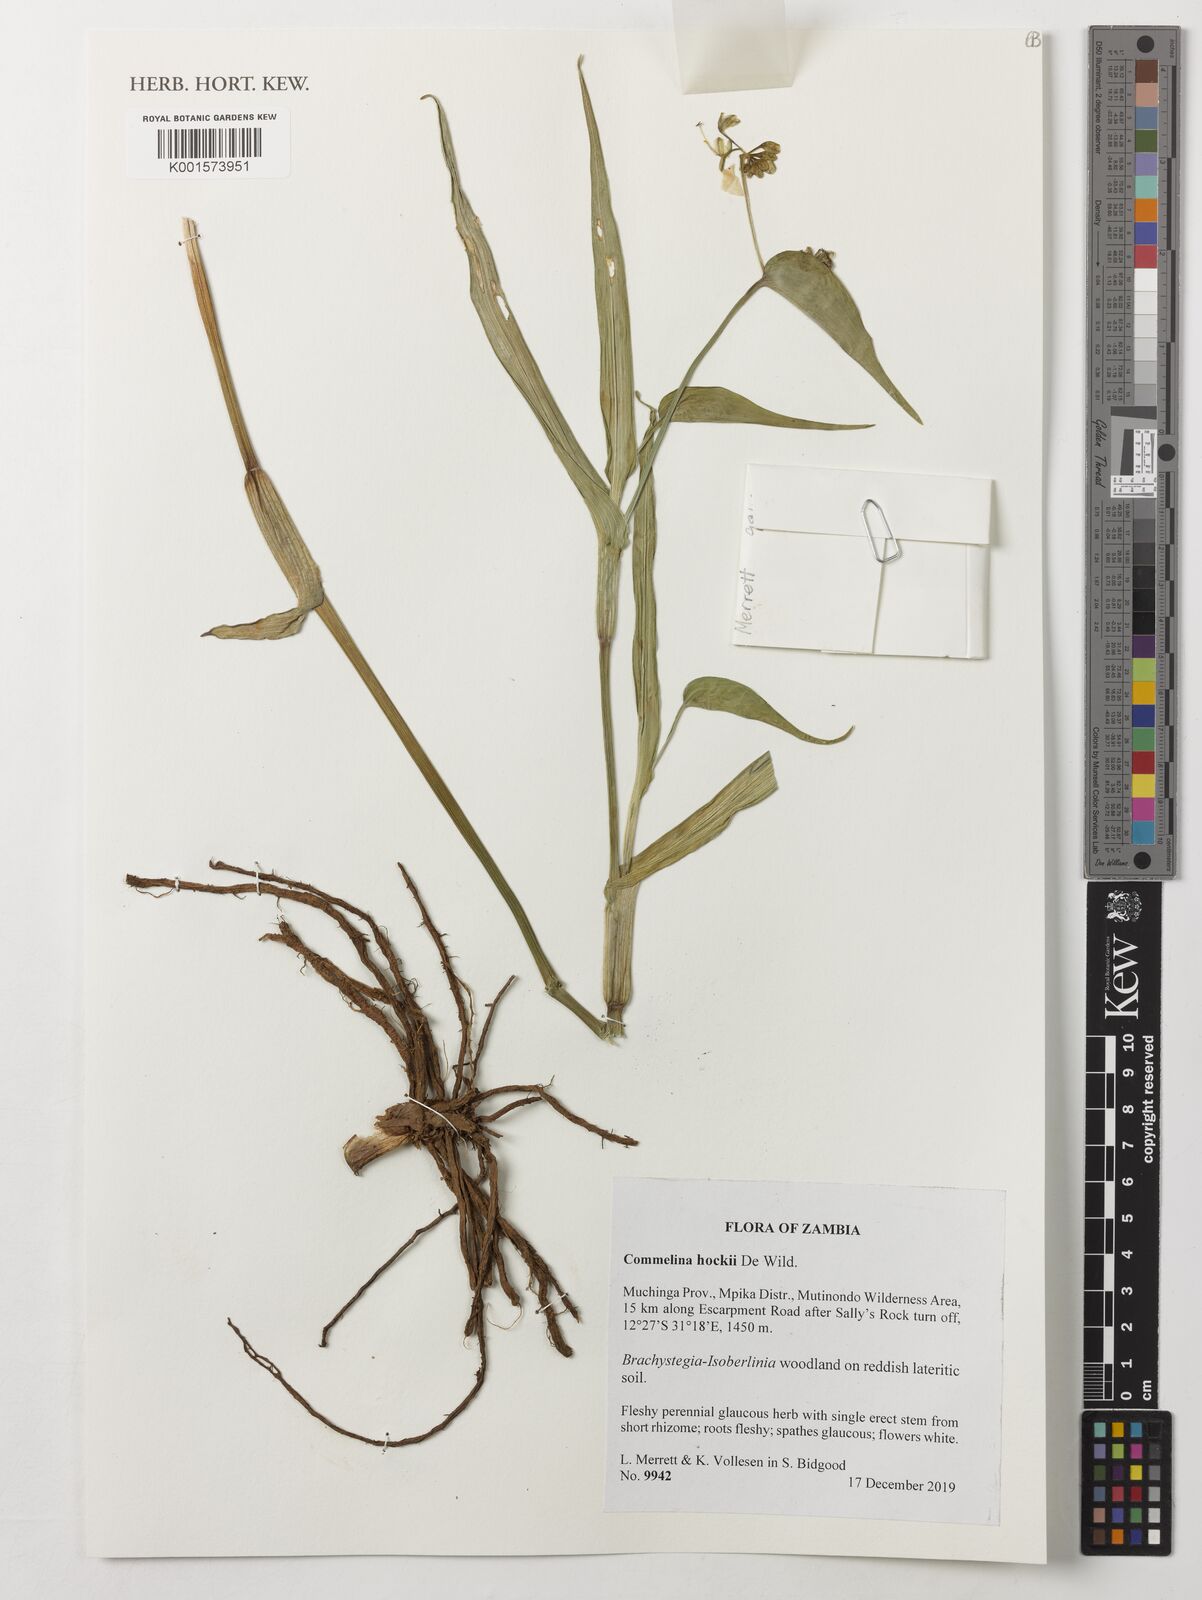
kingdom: Plantae
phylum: Tracheophyta
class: Liliopsida
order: Commelinales
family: Commelinaceae
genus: Commelina
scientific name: Commelina hockii
